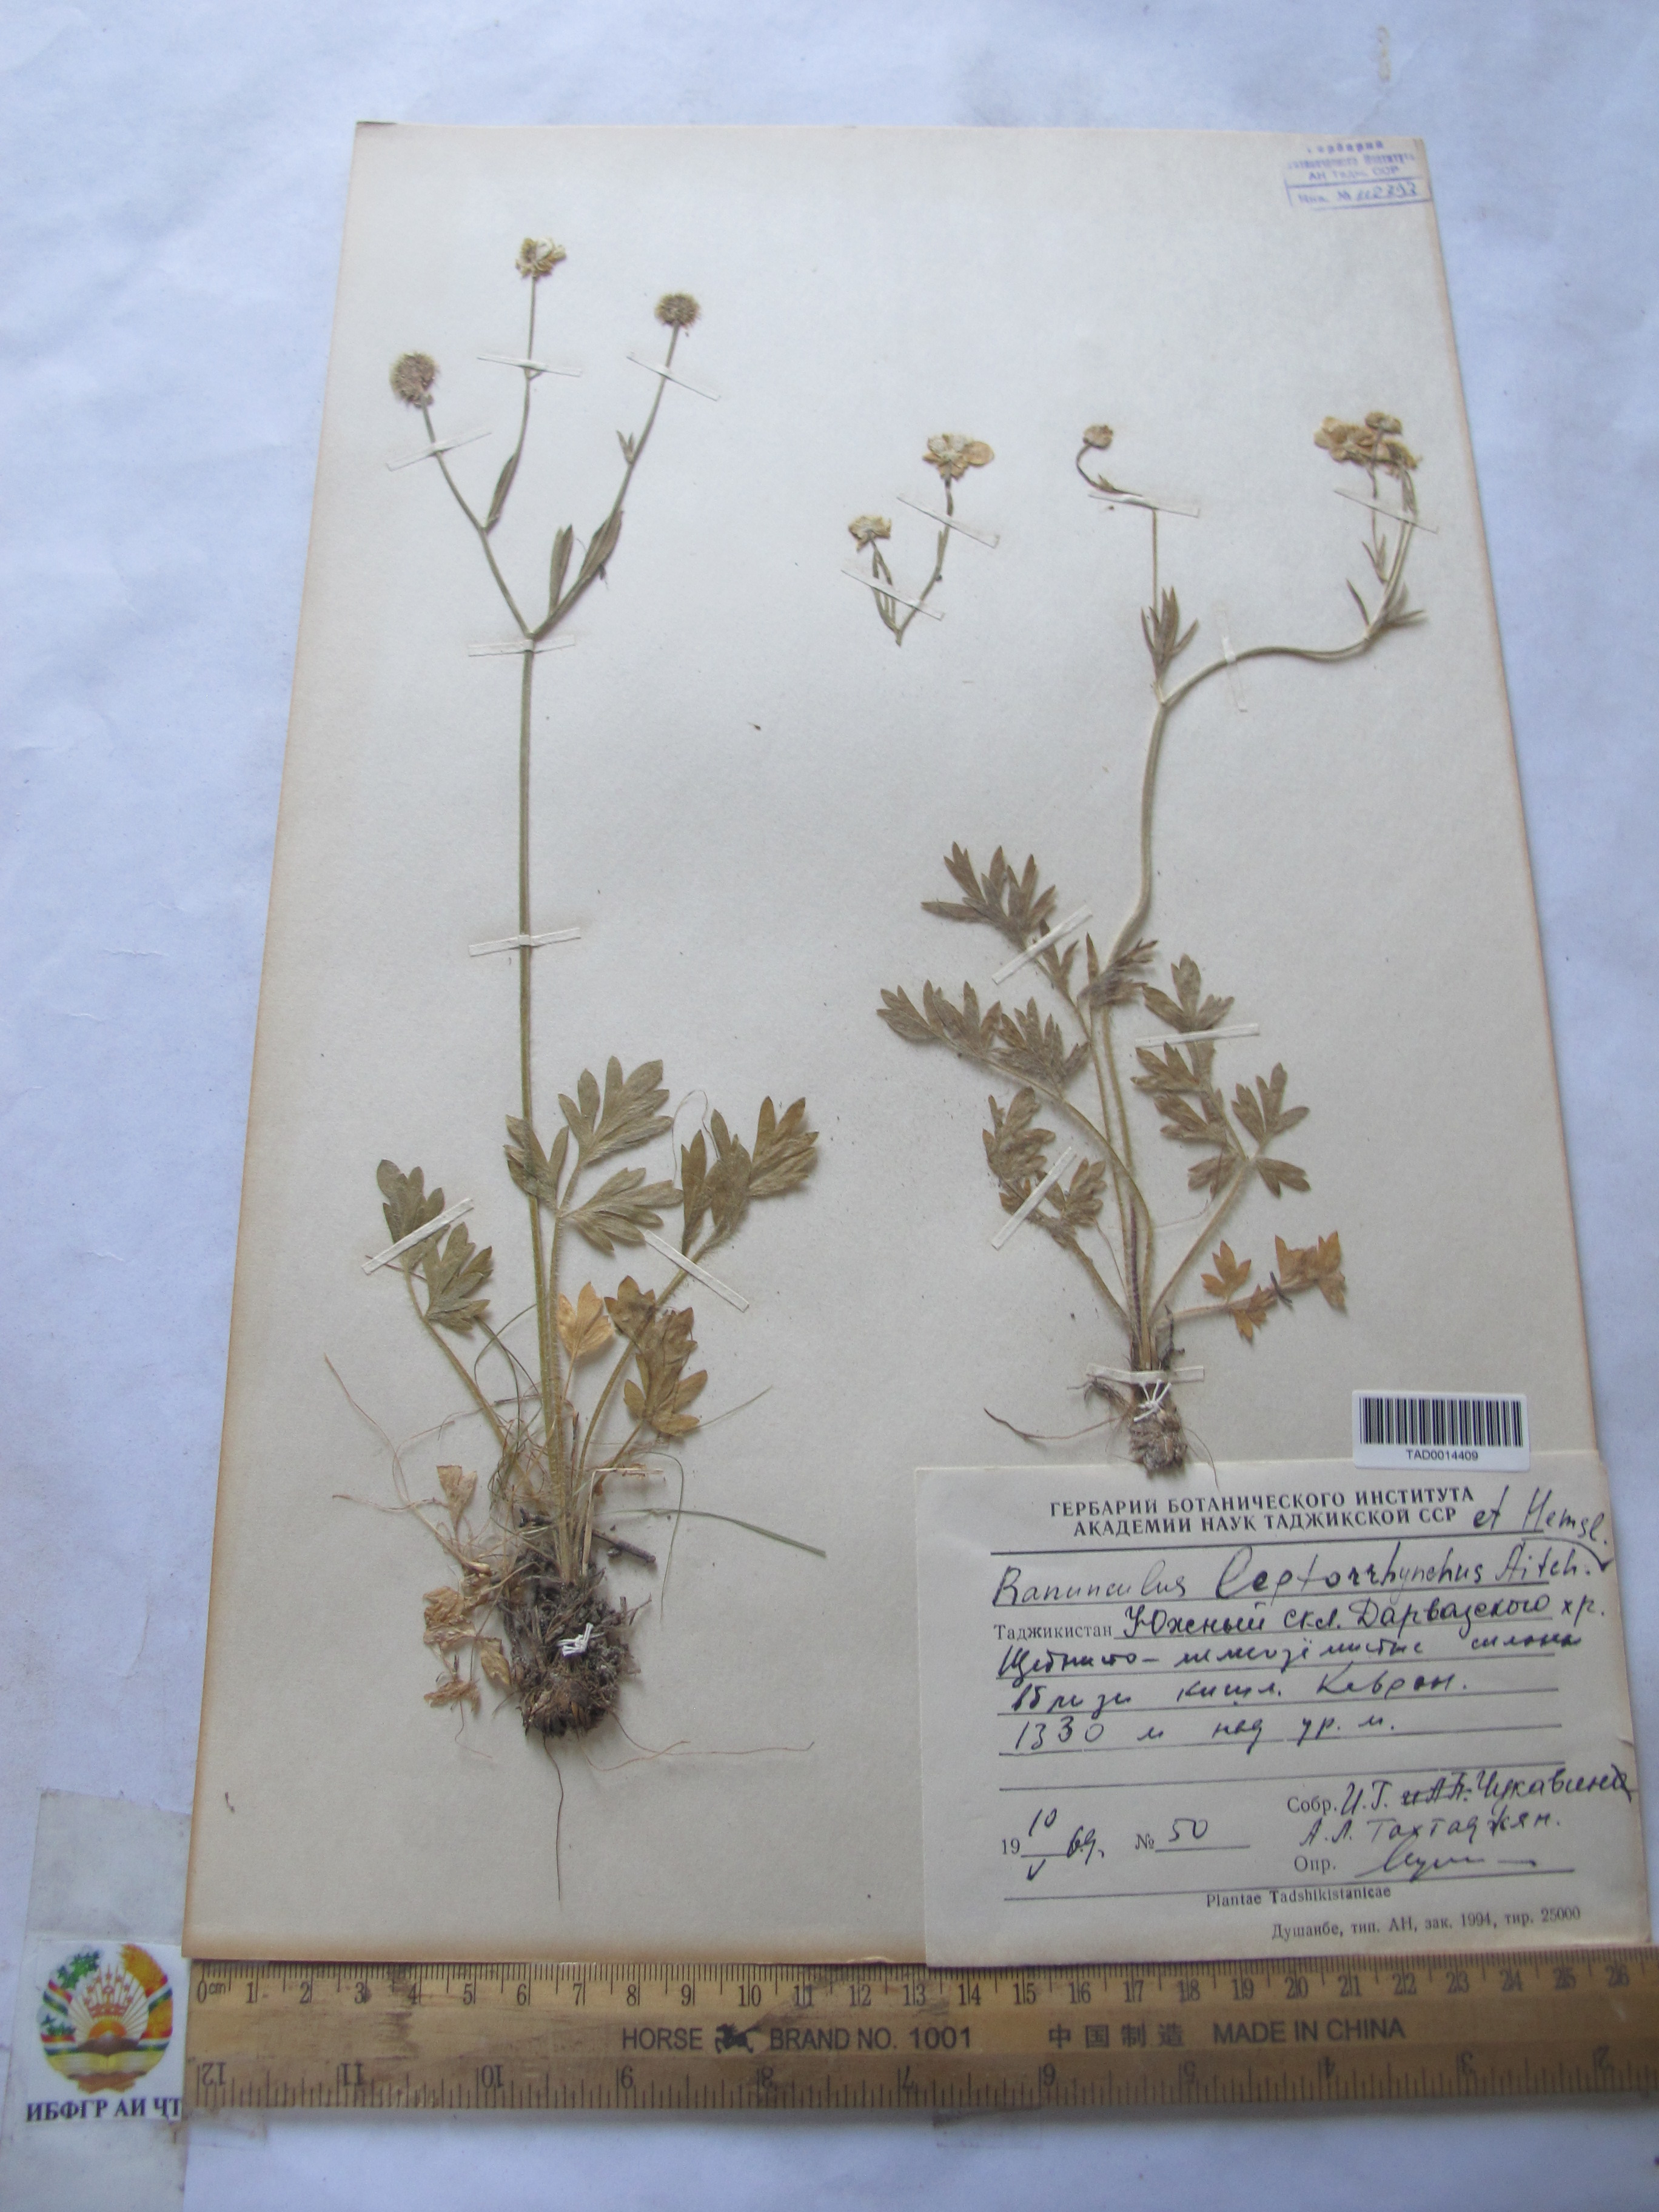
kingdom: Plantae
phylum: Tracheophyta
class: Magnoliopsida
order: Ranunculales
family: Ranunculaceae
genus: Ranunculus
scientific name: Ranunculus leptorrhynchus
